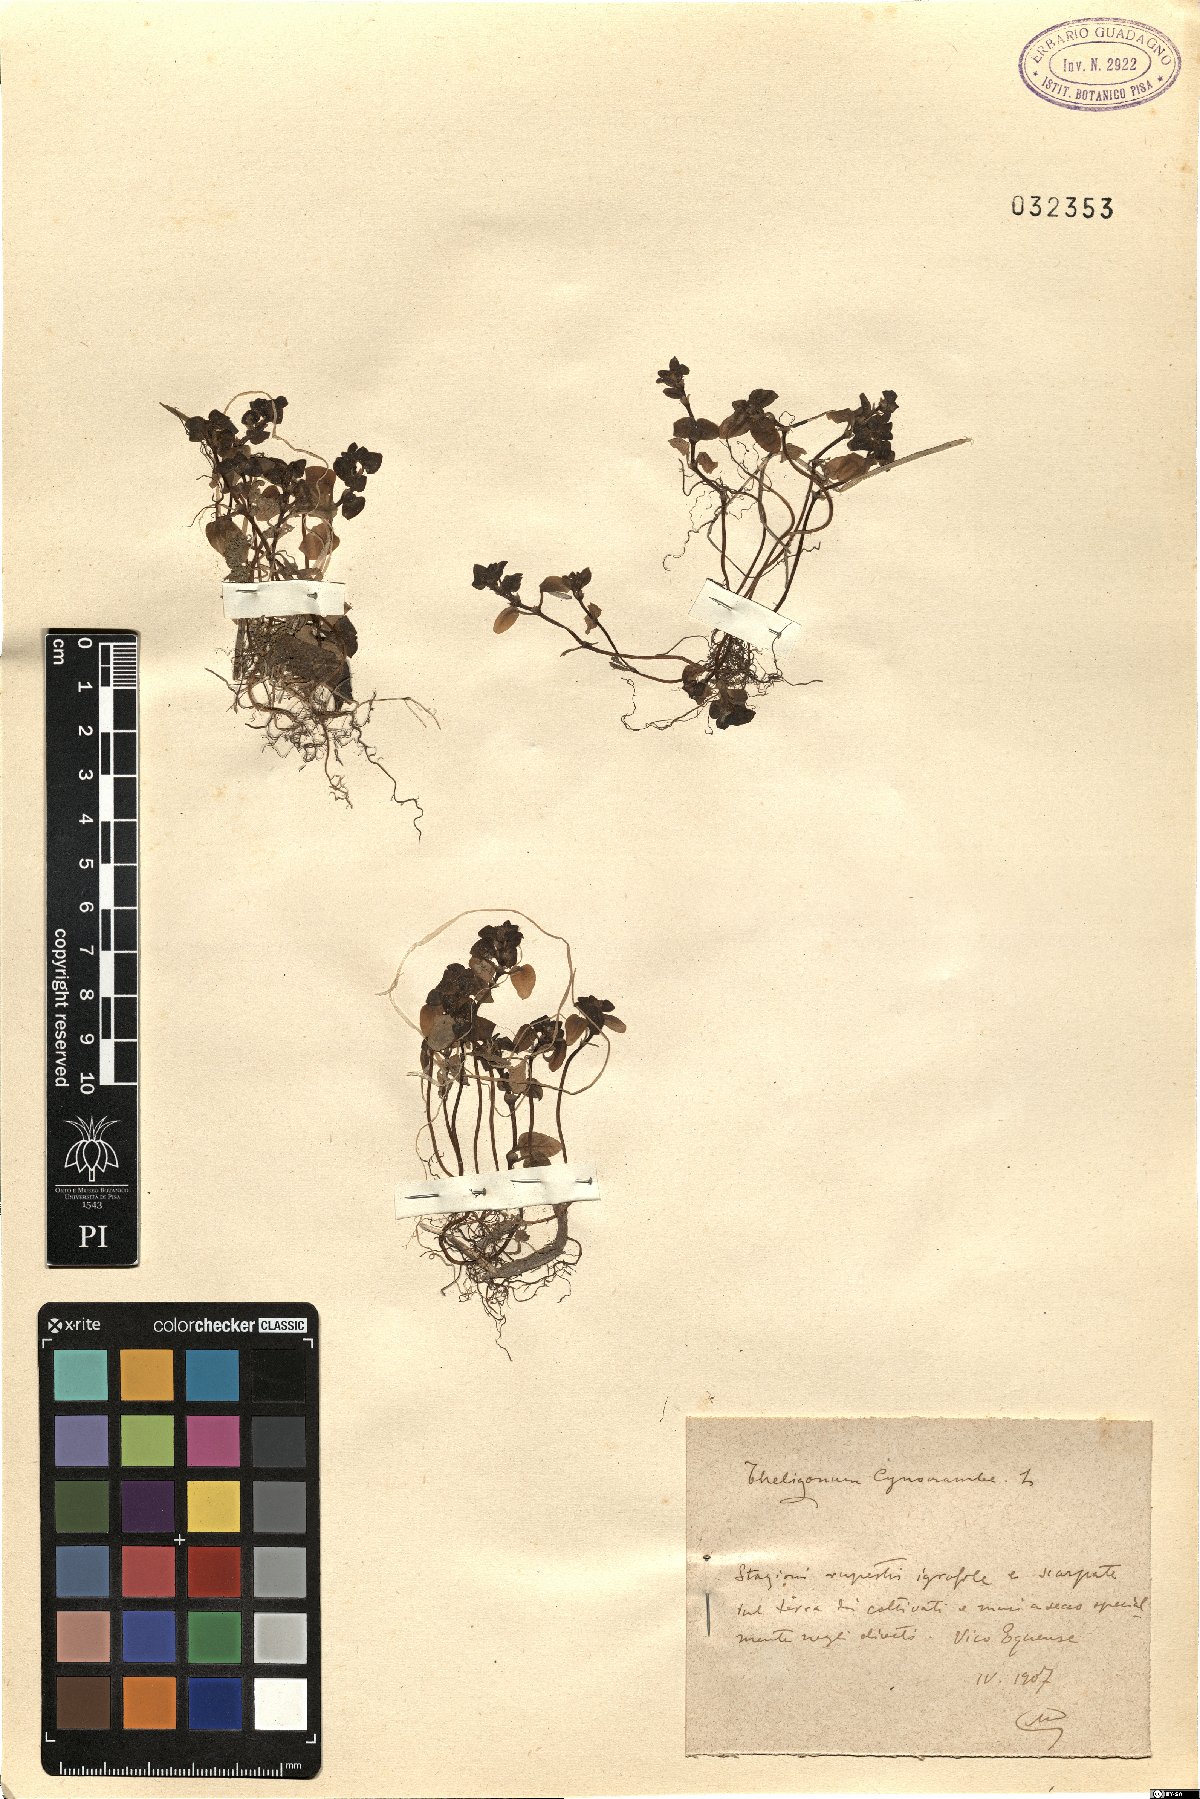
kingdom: Plantae
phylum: Tracheophyta
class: Magnoliopsida
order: Gentianales
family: Rubiaceae
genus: Theligonum
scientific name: Theligonum cynocrambe
